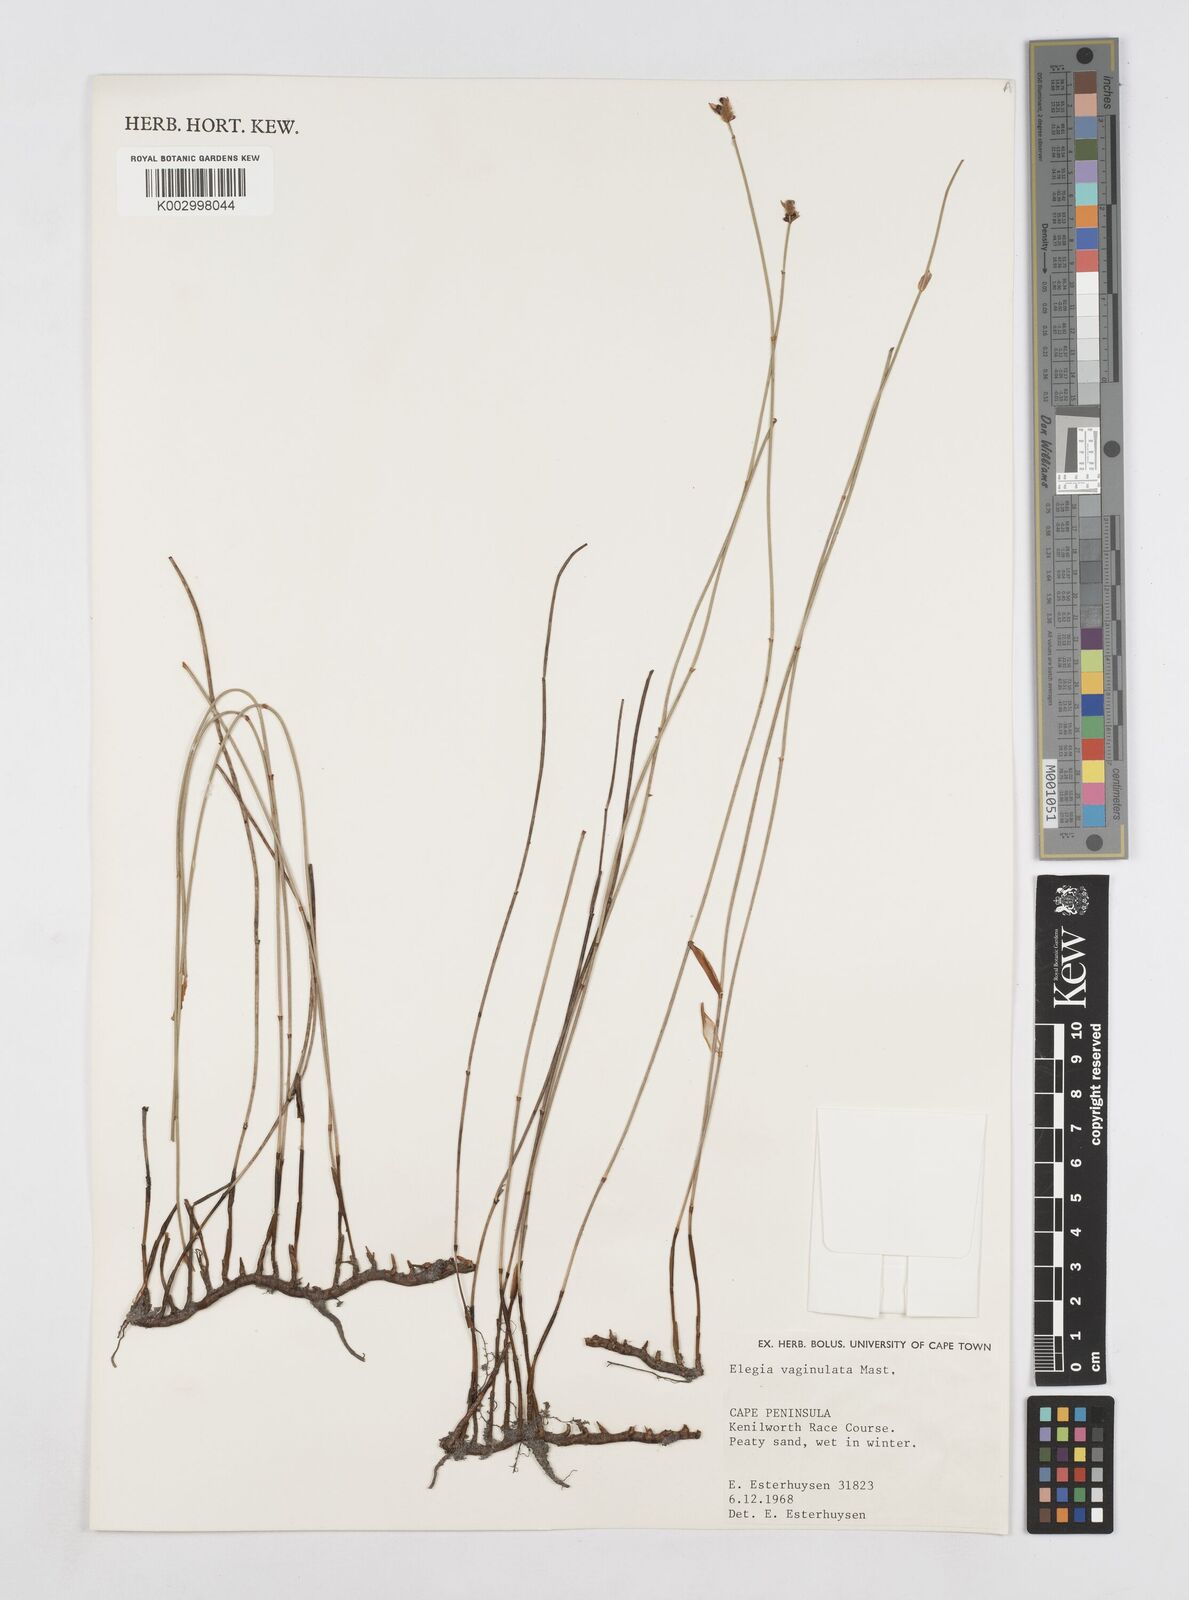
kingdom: Plantae
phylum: Tracheophyta
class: Liliopsida
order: Poales
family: Restionaceae
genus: Elegia
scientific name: Elegia vaginulata
